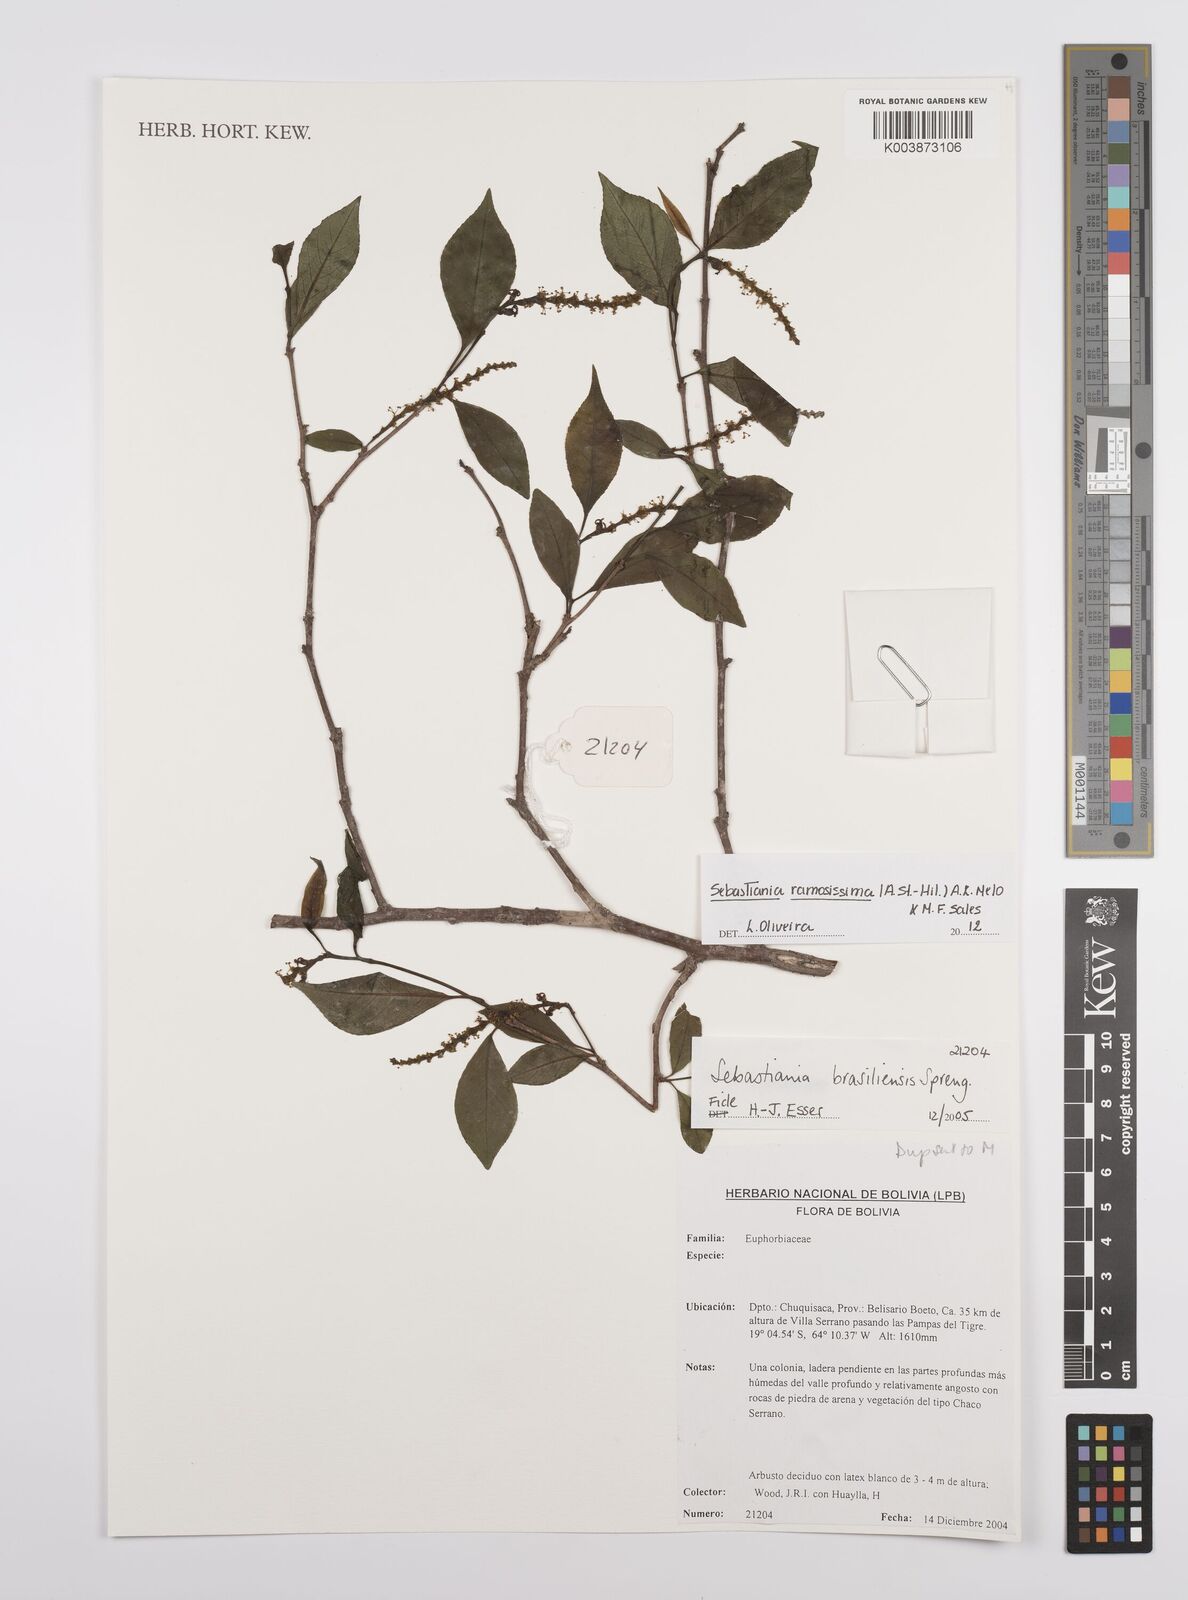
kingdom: Plantae
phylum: Tracheophyta
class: Magnoliopsida
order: Malpighiales
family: Euphorbiaceae
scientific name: Euphorbiaceae
